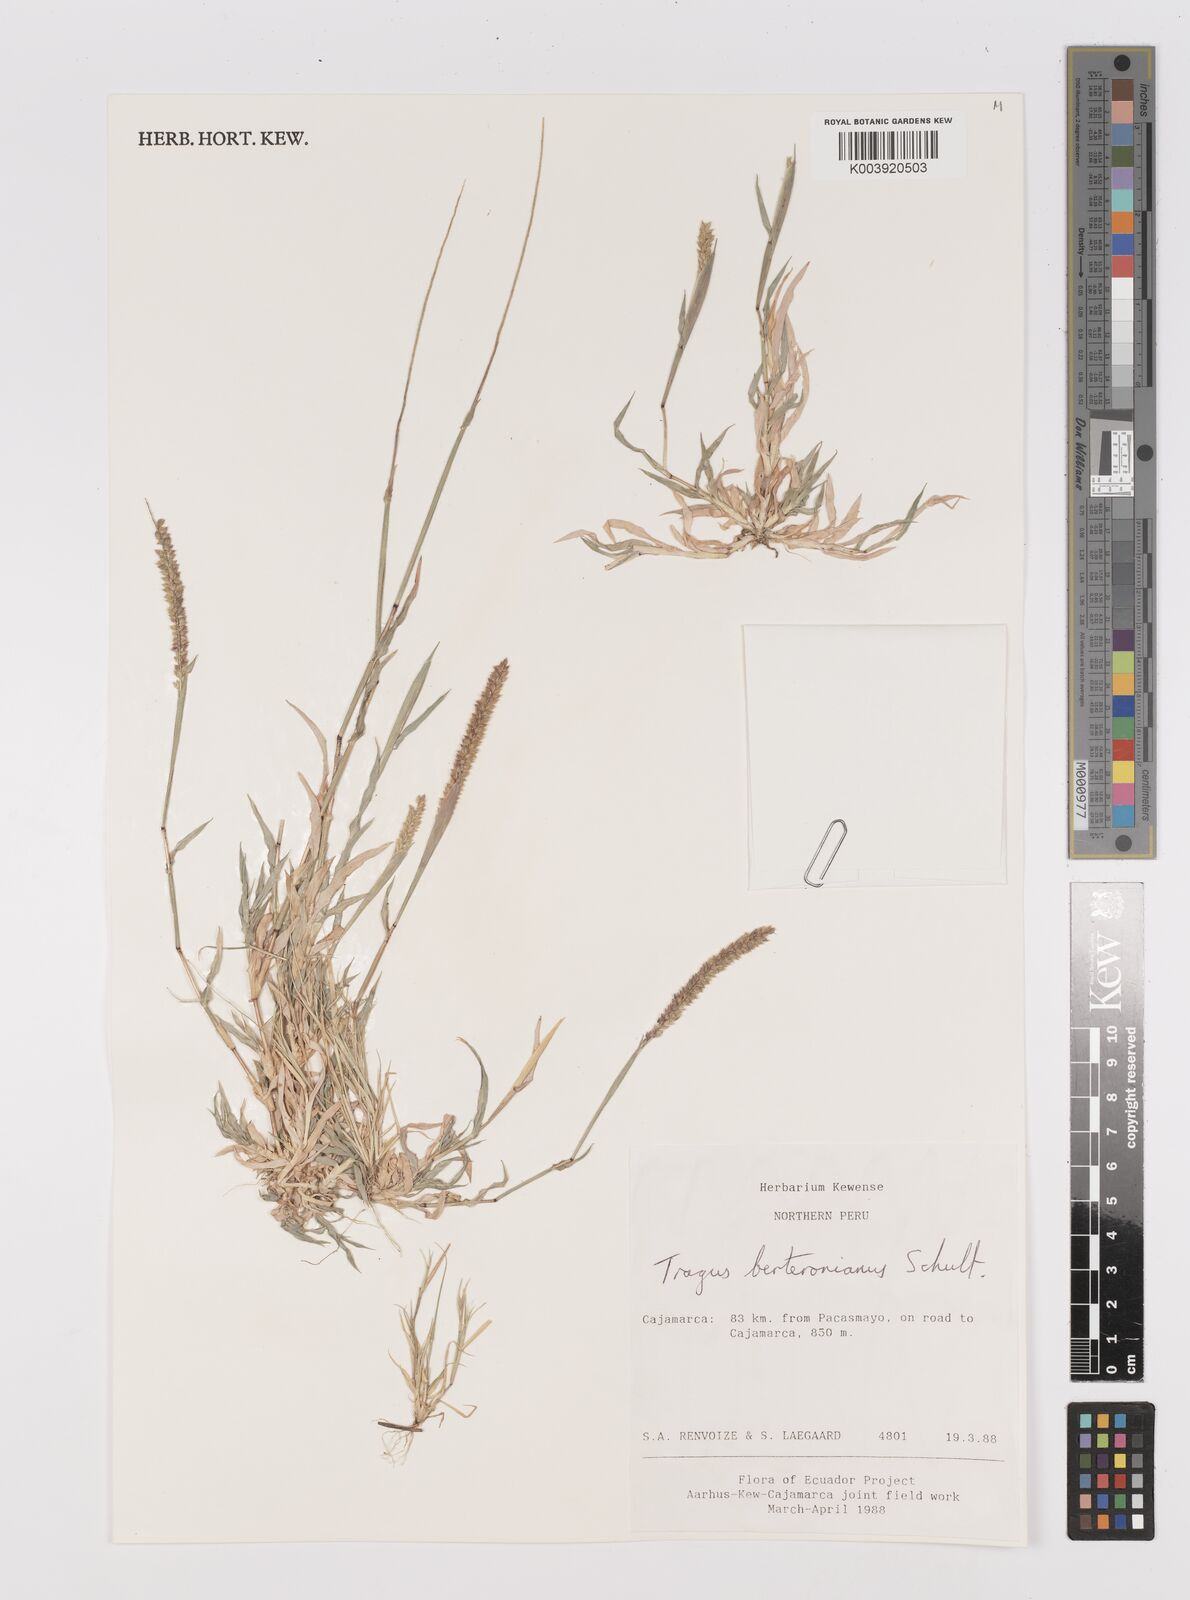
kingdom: Plantae
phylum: Tracheophyta
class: Liliopsida
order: Poales
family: Poaceae
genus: Tragus
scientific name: Tragus berteronianus
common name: African bur-grass
